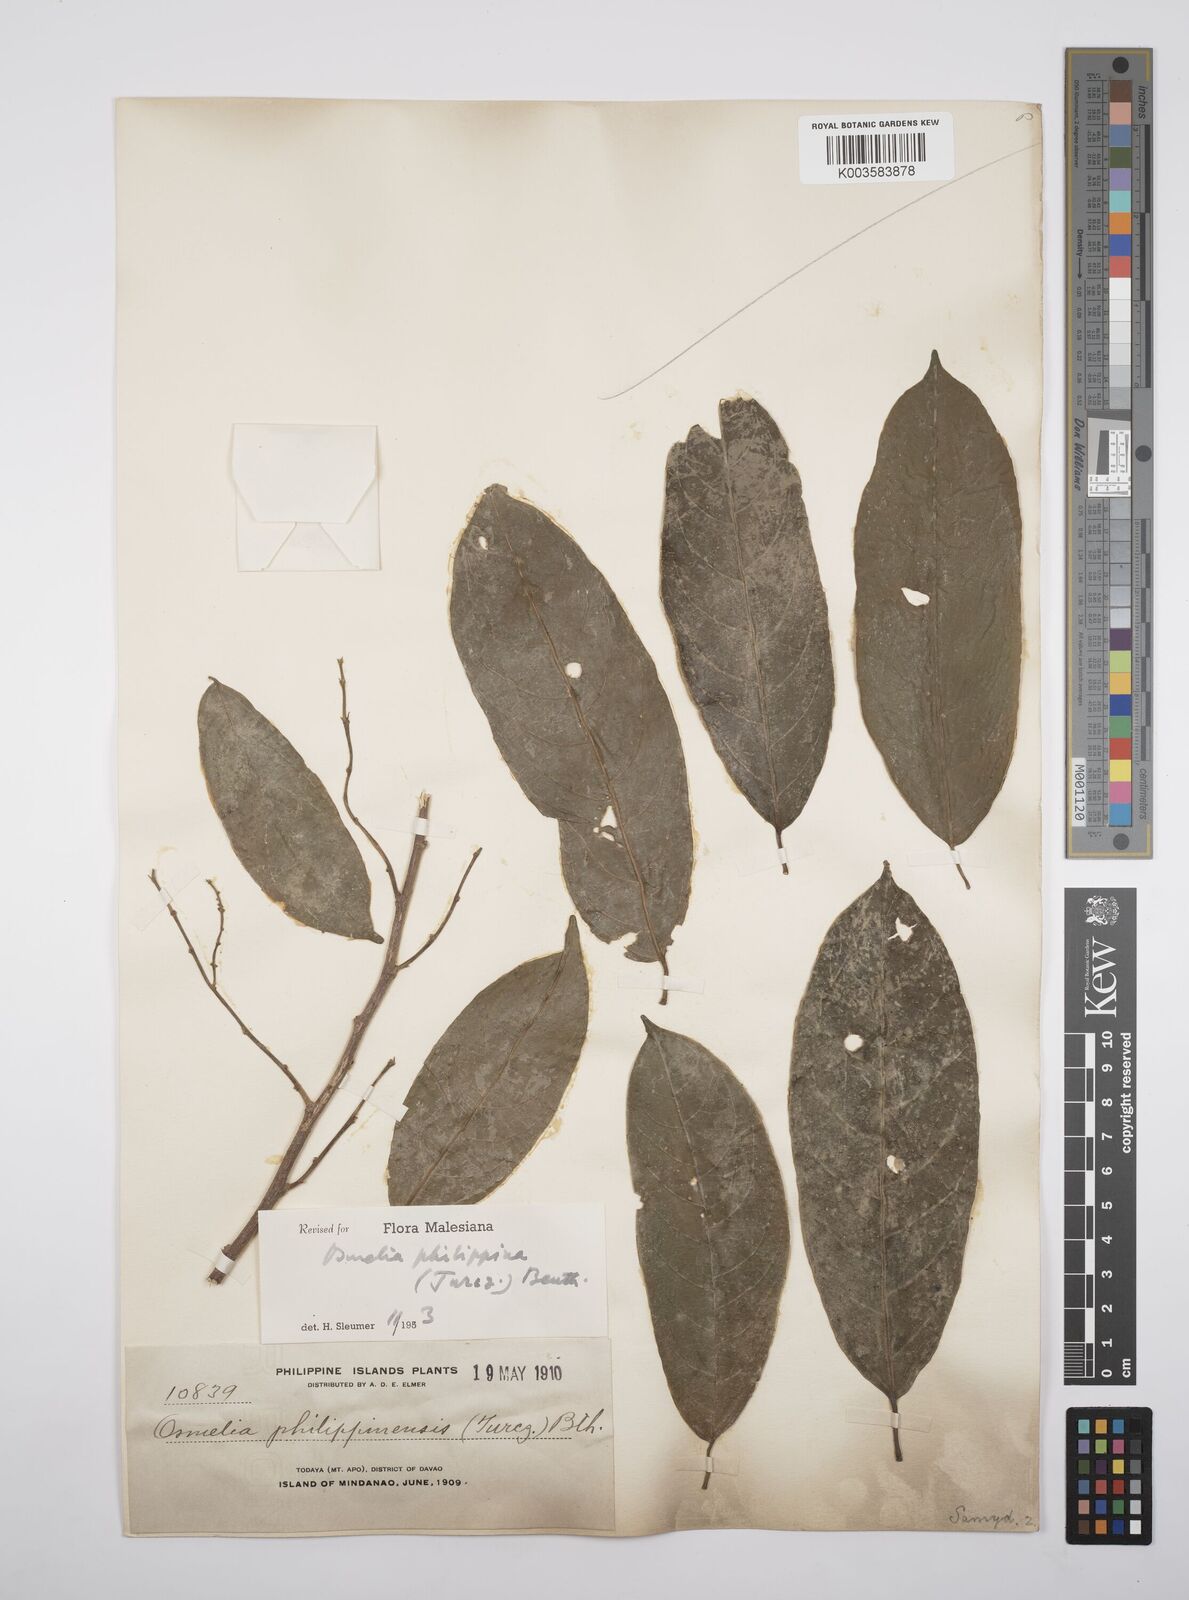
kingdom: Plantae
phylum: Tracheophyta
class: Magnoliopsida
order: Malpighiales
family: Salicaceae
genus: Osmelia
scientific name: Osmelia philippina
